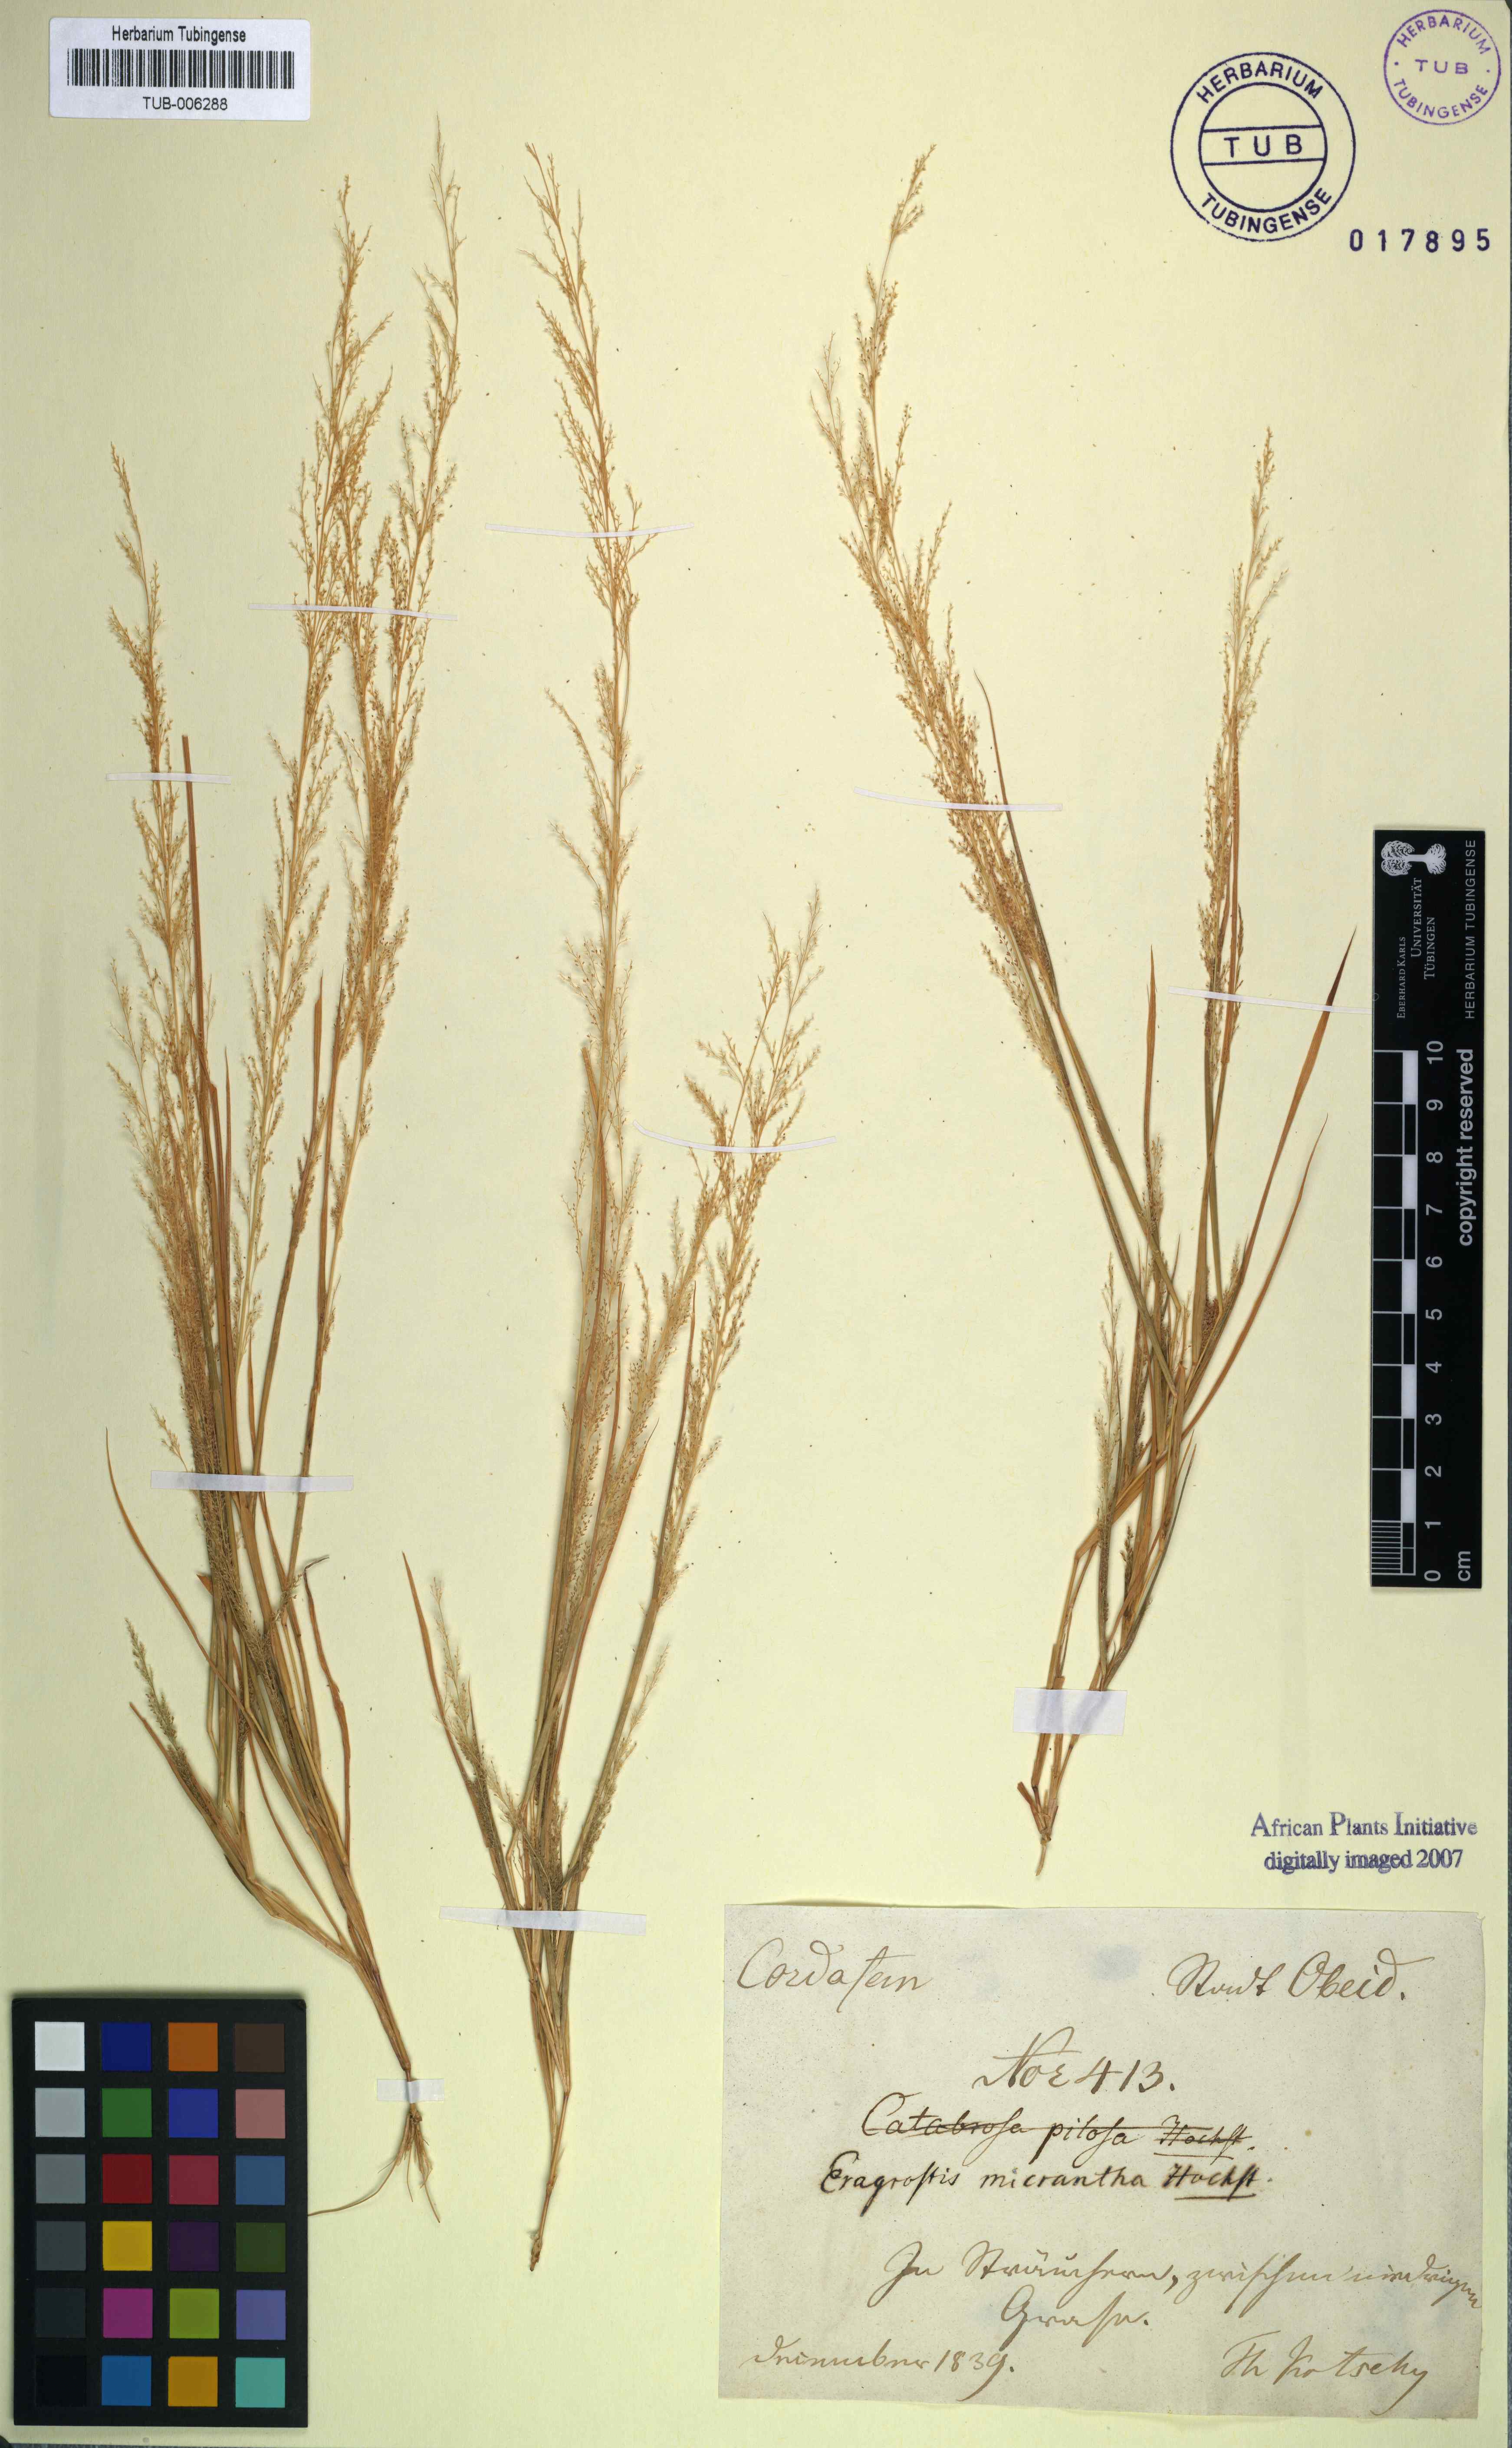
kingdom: Plantae
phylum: Tracheophyta
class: Liliopsida
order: Poales
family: Poaceae
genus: Eragrostis
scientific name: Eragrostis micrantha
